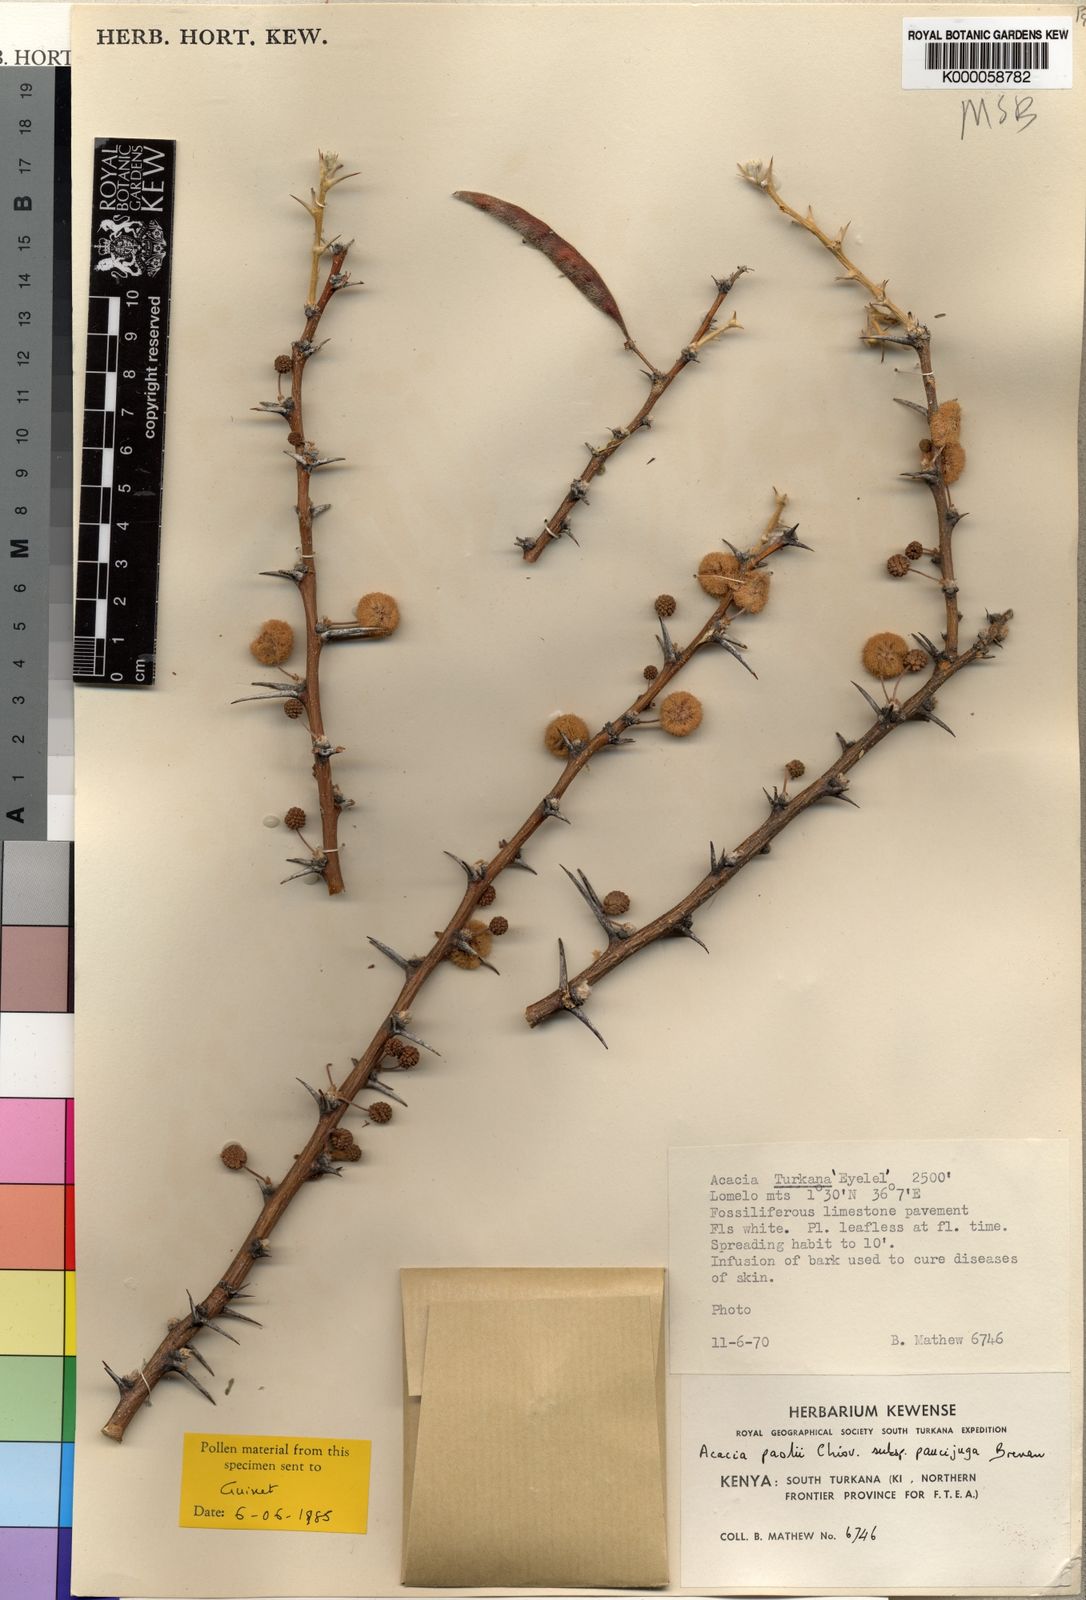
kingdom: Plantae
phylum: Tracheophyta
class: Magnoliopsida
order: Fabales
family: Fabaceae
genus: Vachellia
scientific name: Vachellia paolii
